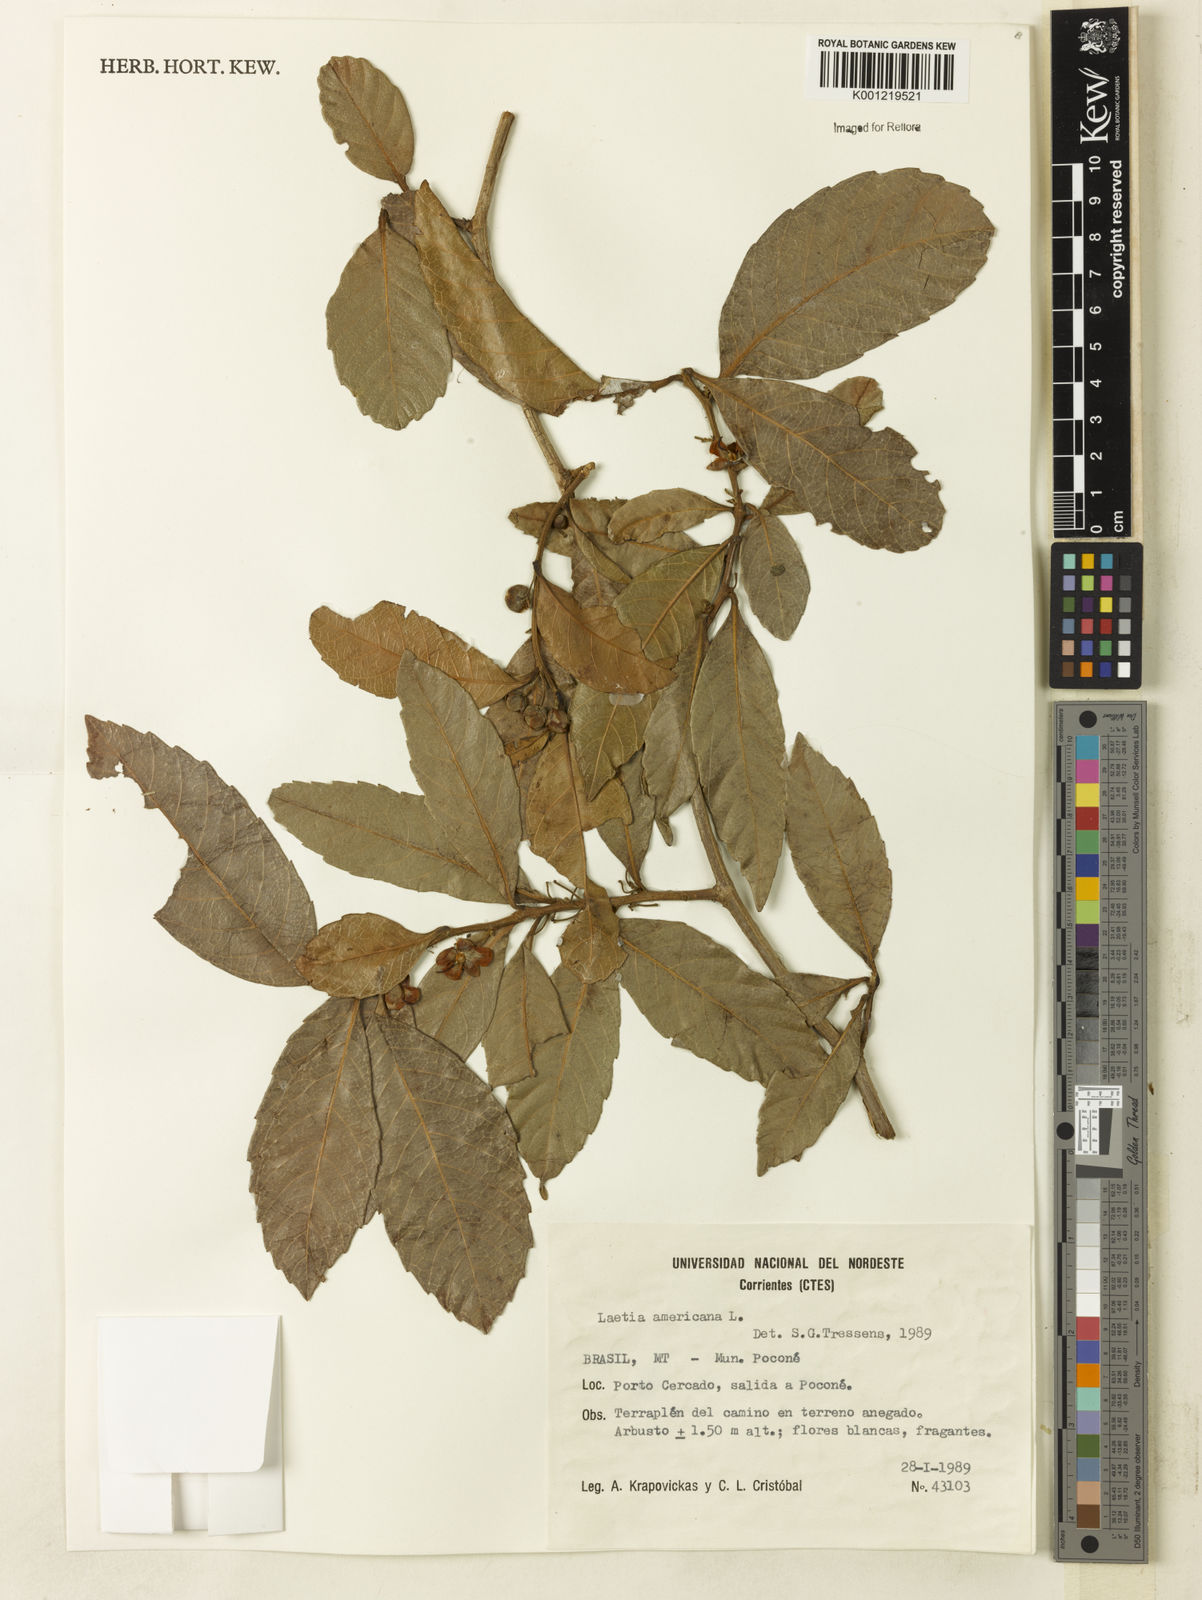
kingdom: Plantae
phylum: Tracheophyta
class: Magnoliopsida
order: Malpighiales
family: Salicaceae
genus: Casearia
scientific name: Casearia americana
